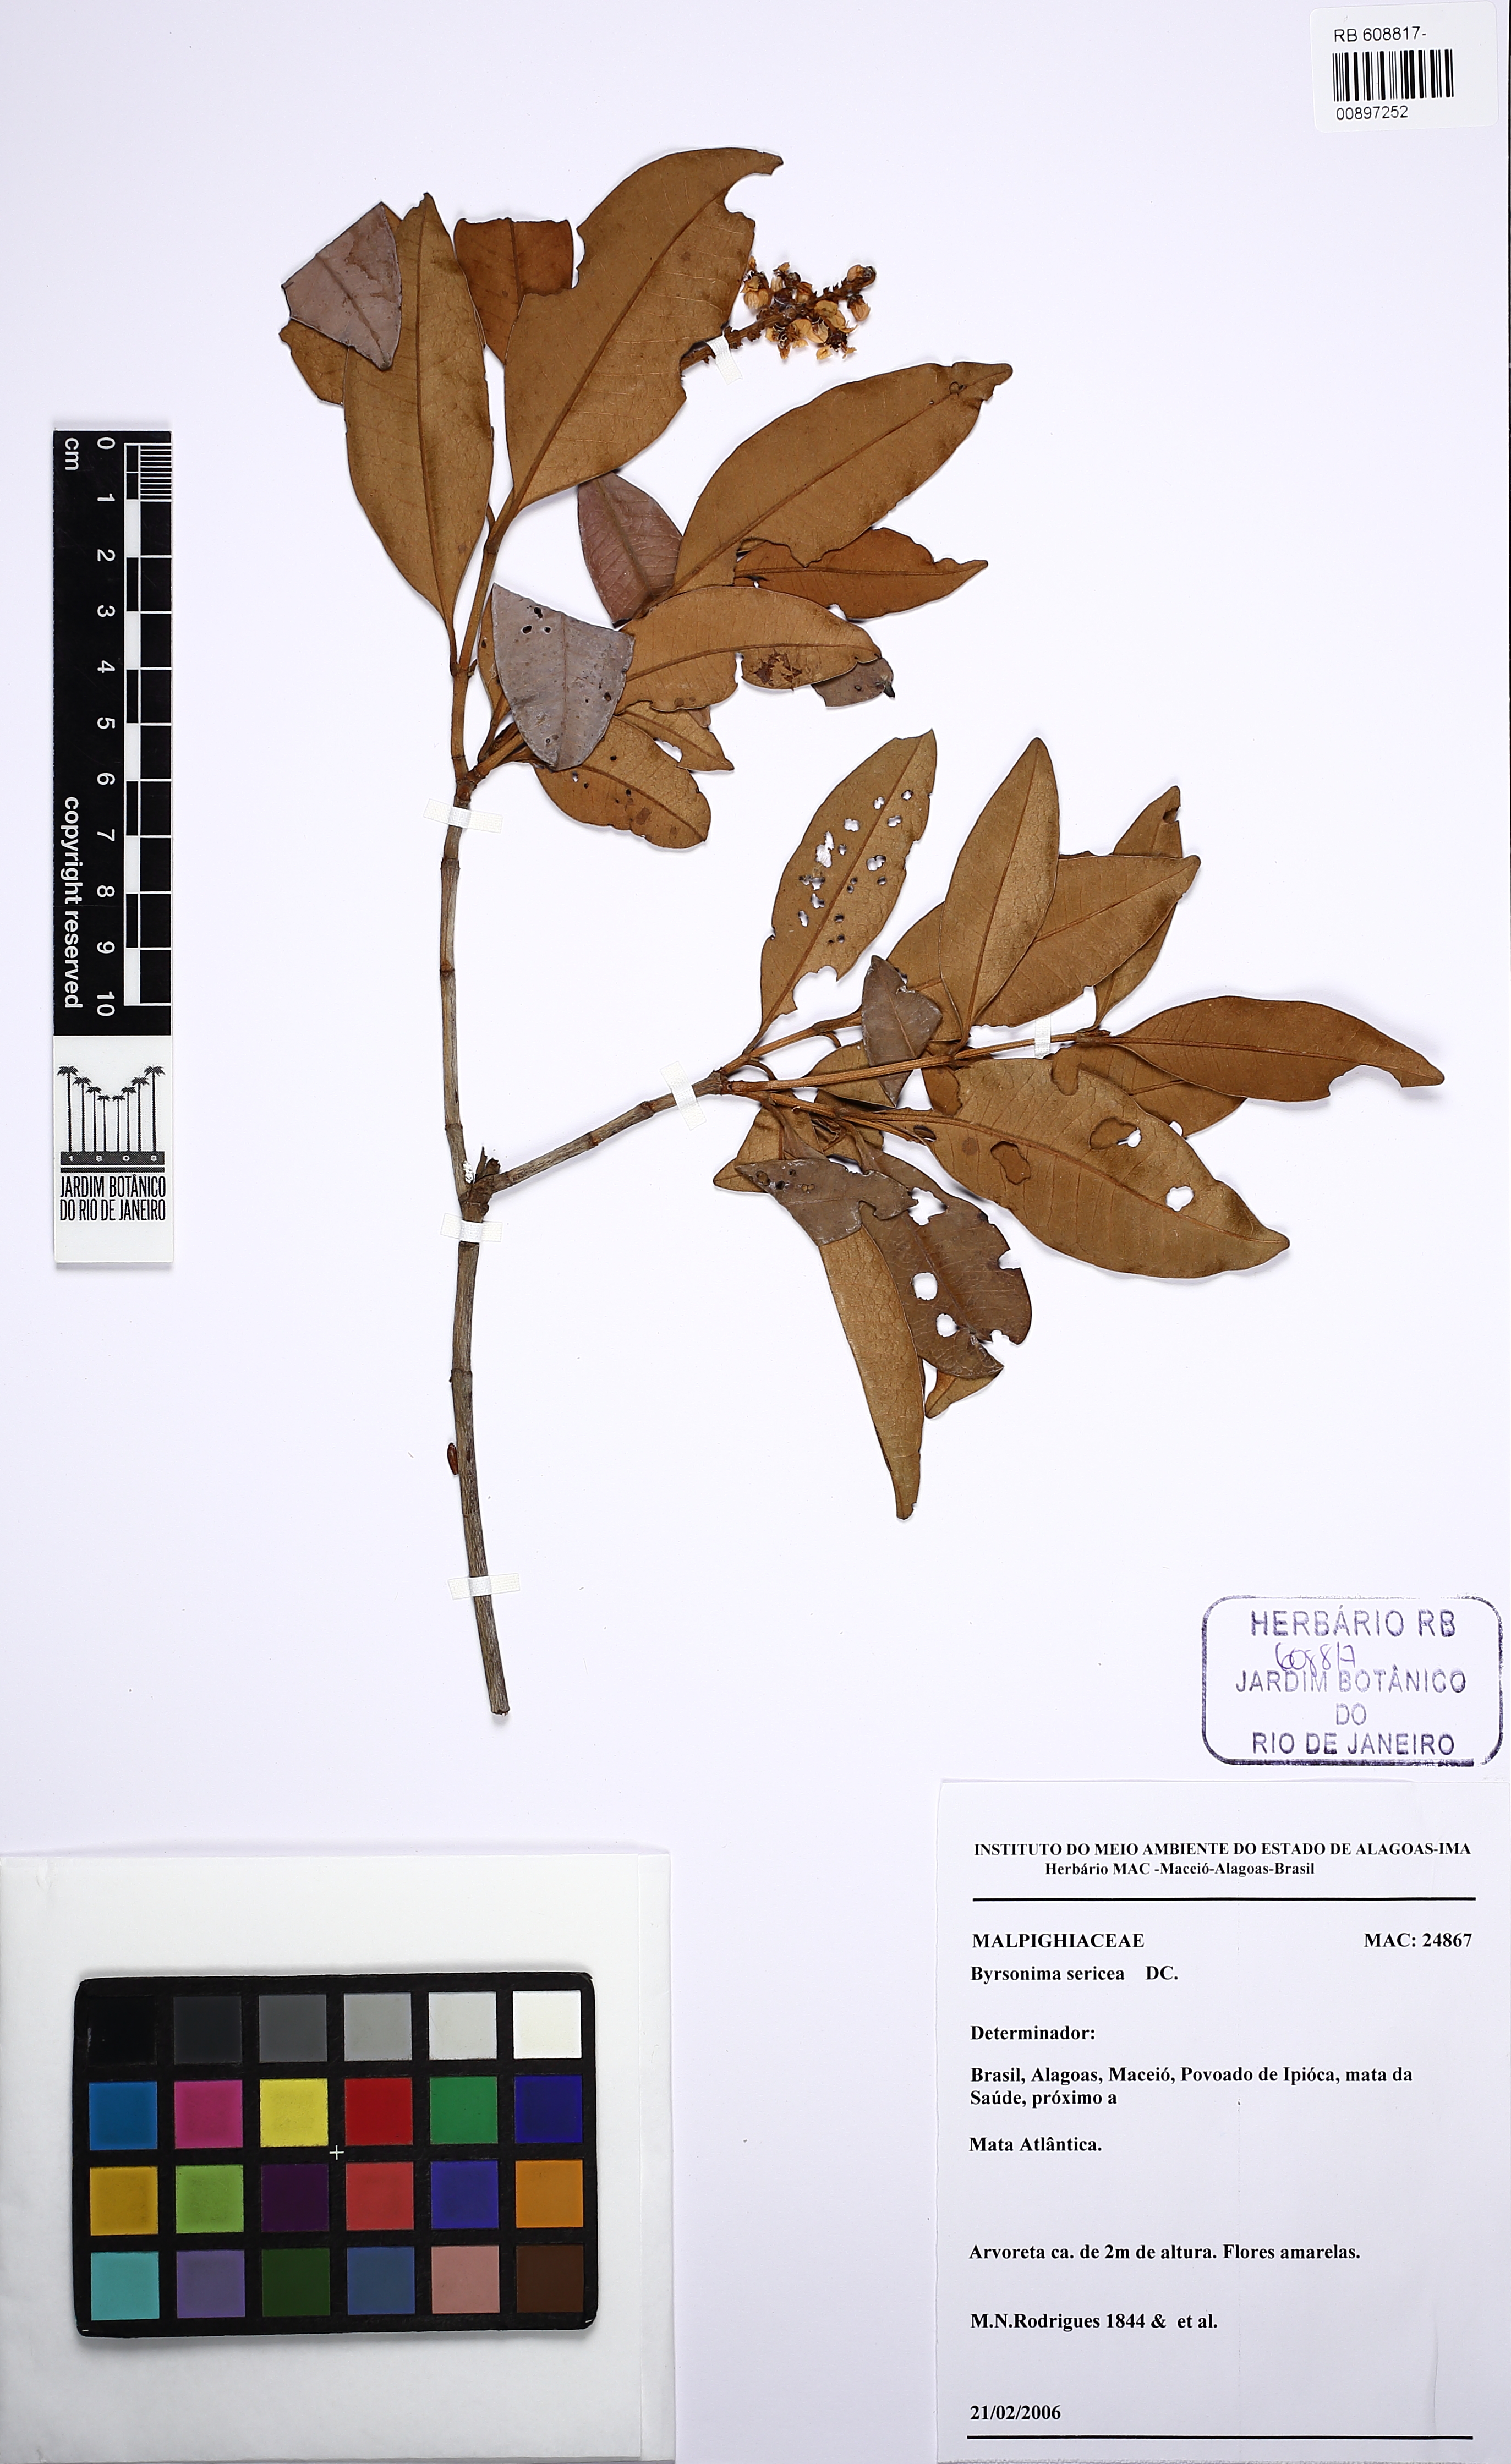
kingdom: Plantae
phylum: Tracheophyta
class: Magnoliopsida
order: Malpighiales
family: Malpighiaceae
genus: Byrsonima
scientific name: Byrsonima sericea
